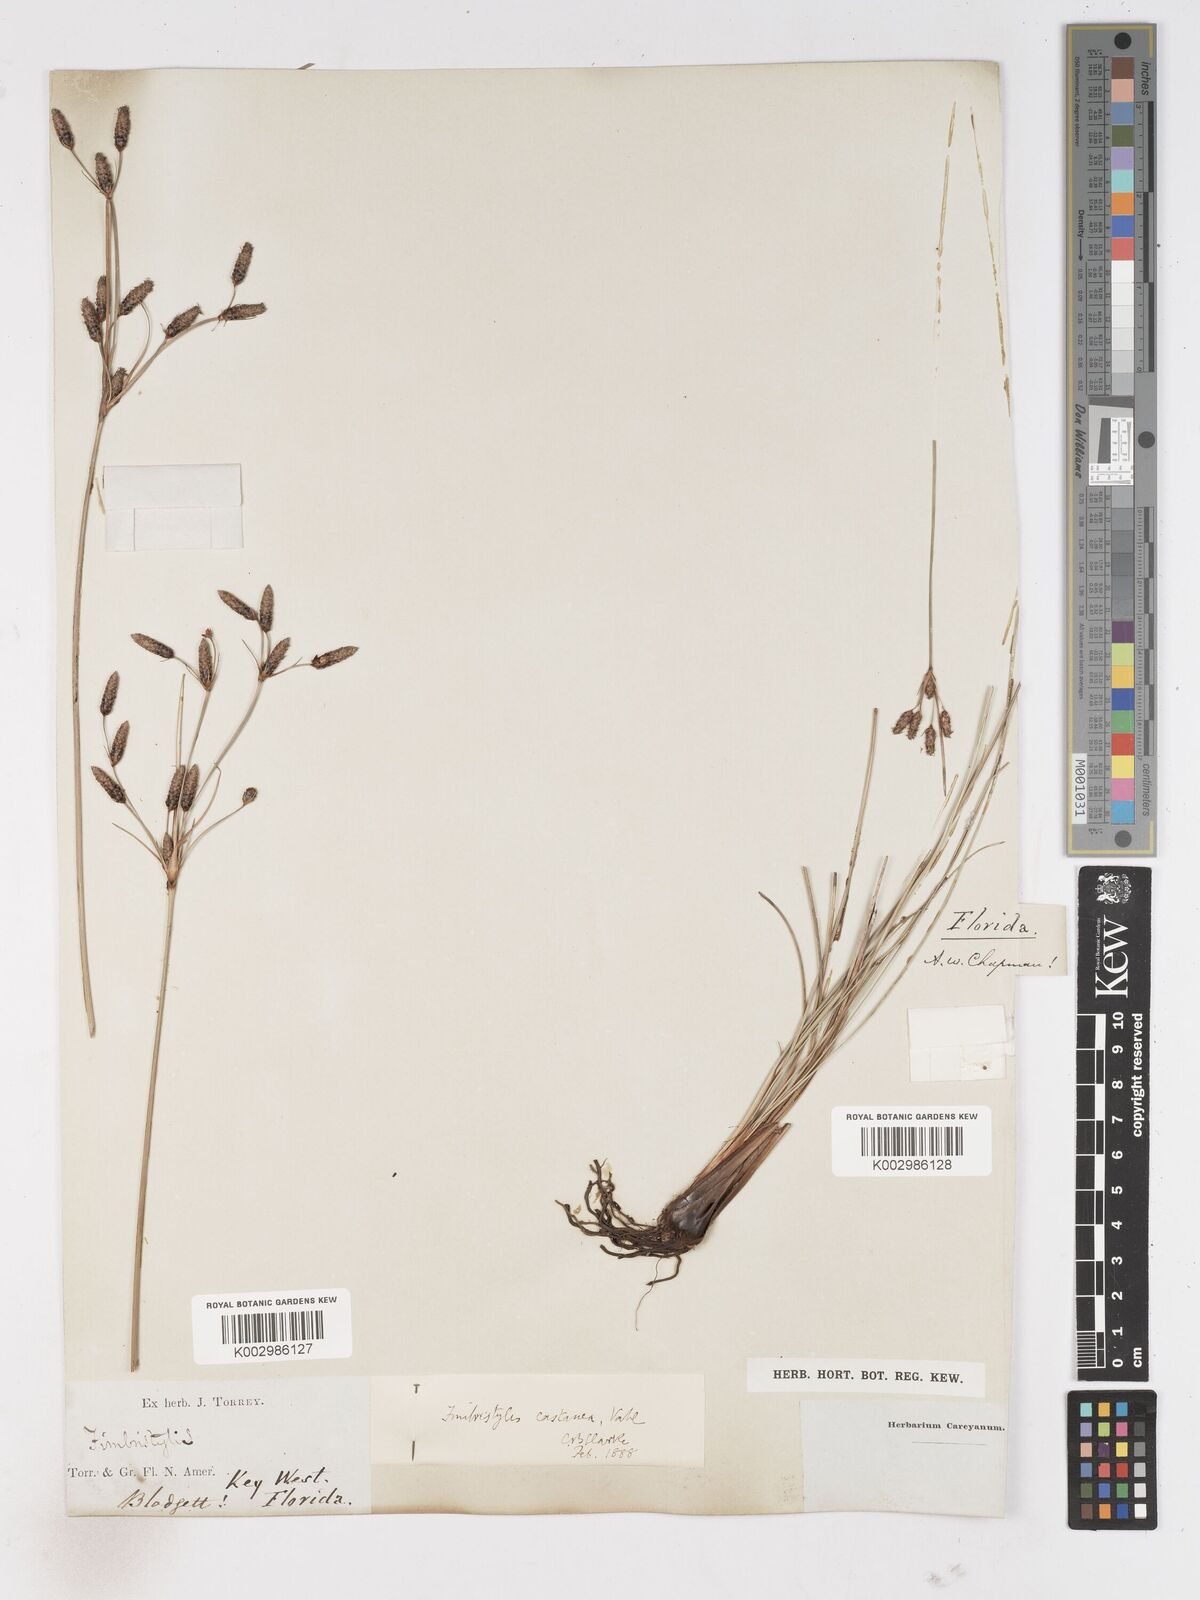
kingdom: Plantae
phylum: Tracheophyta
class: Liliopsida
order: Poales
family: Cyperaceae
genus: Fimbristylis
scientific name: Fimbristylis spadicea
